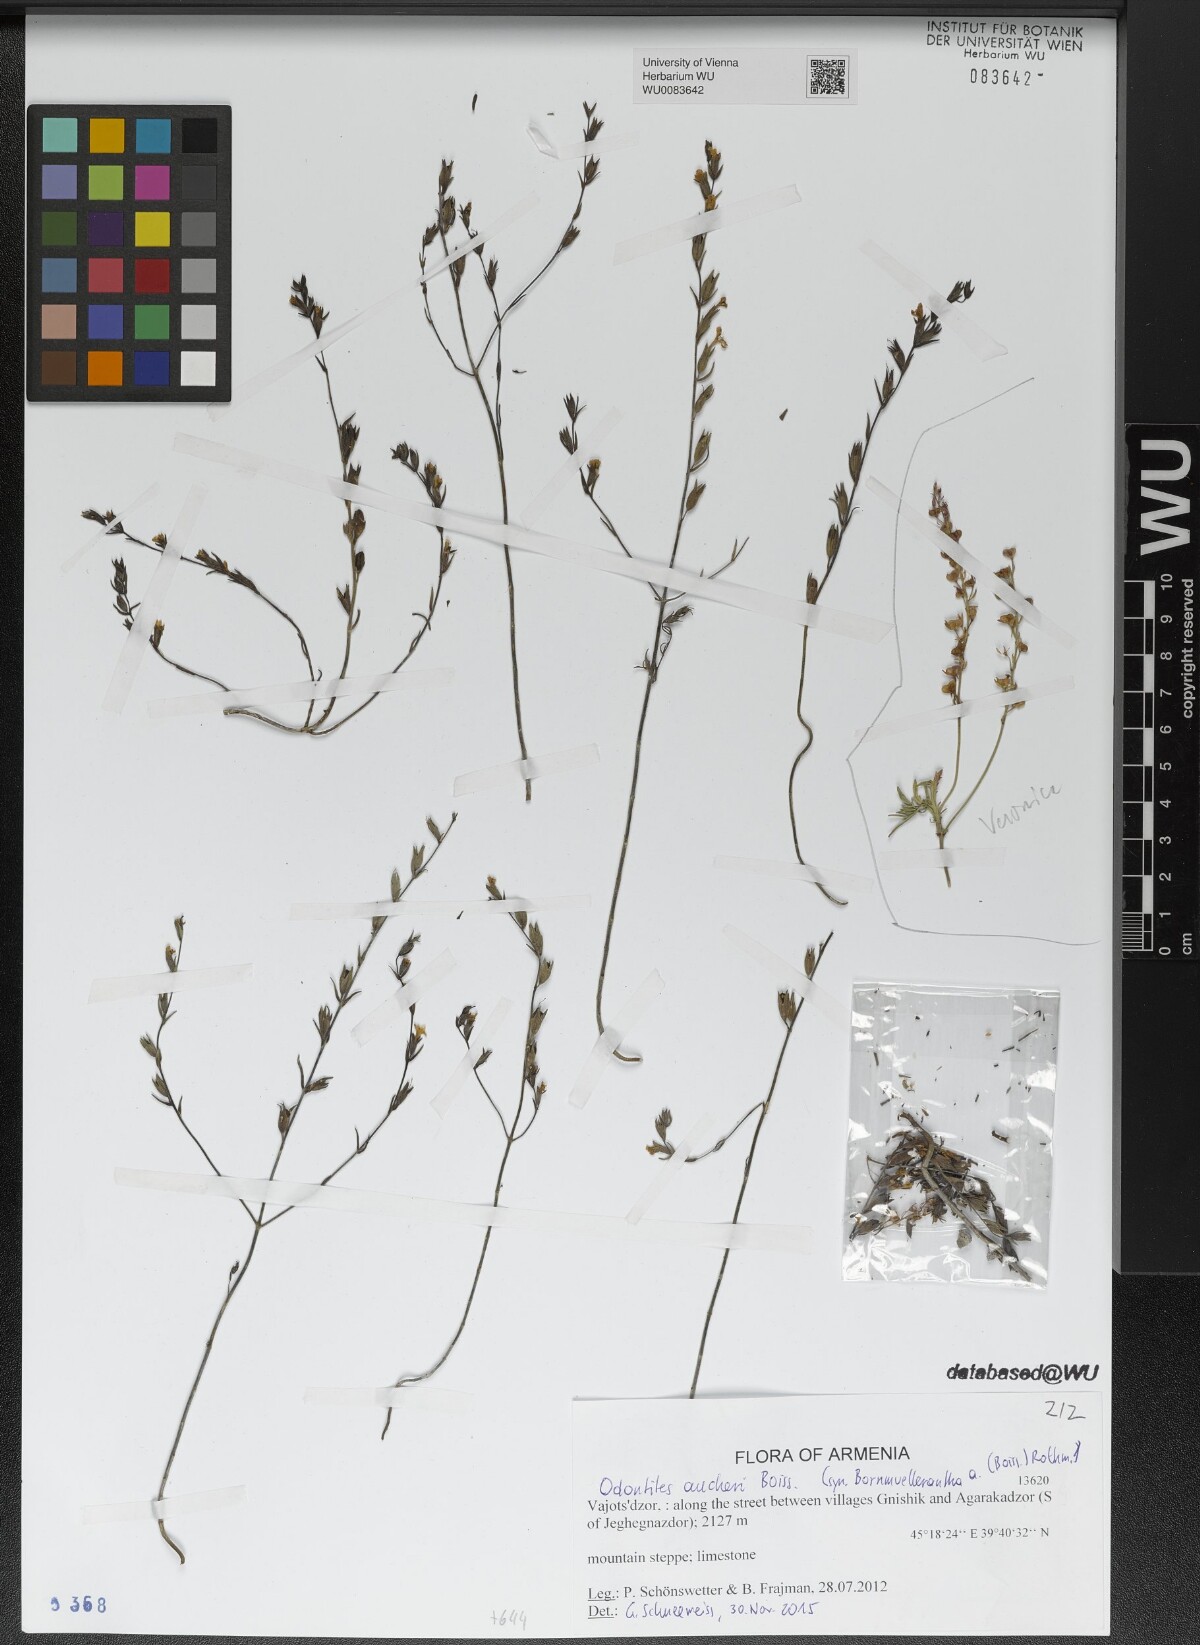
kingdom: Plantae
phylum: Tracheophyta
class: Magnoliopsida
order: Lamiales
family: Orobanchaceae
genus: Odontites
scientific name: Odontites aucheri
